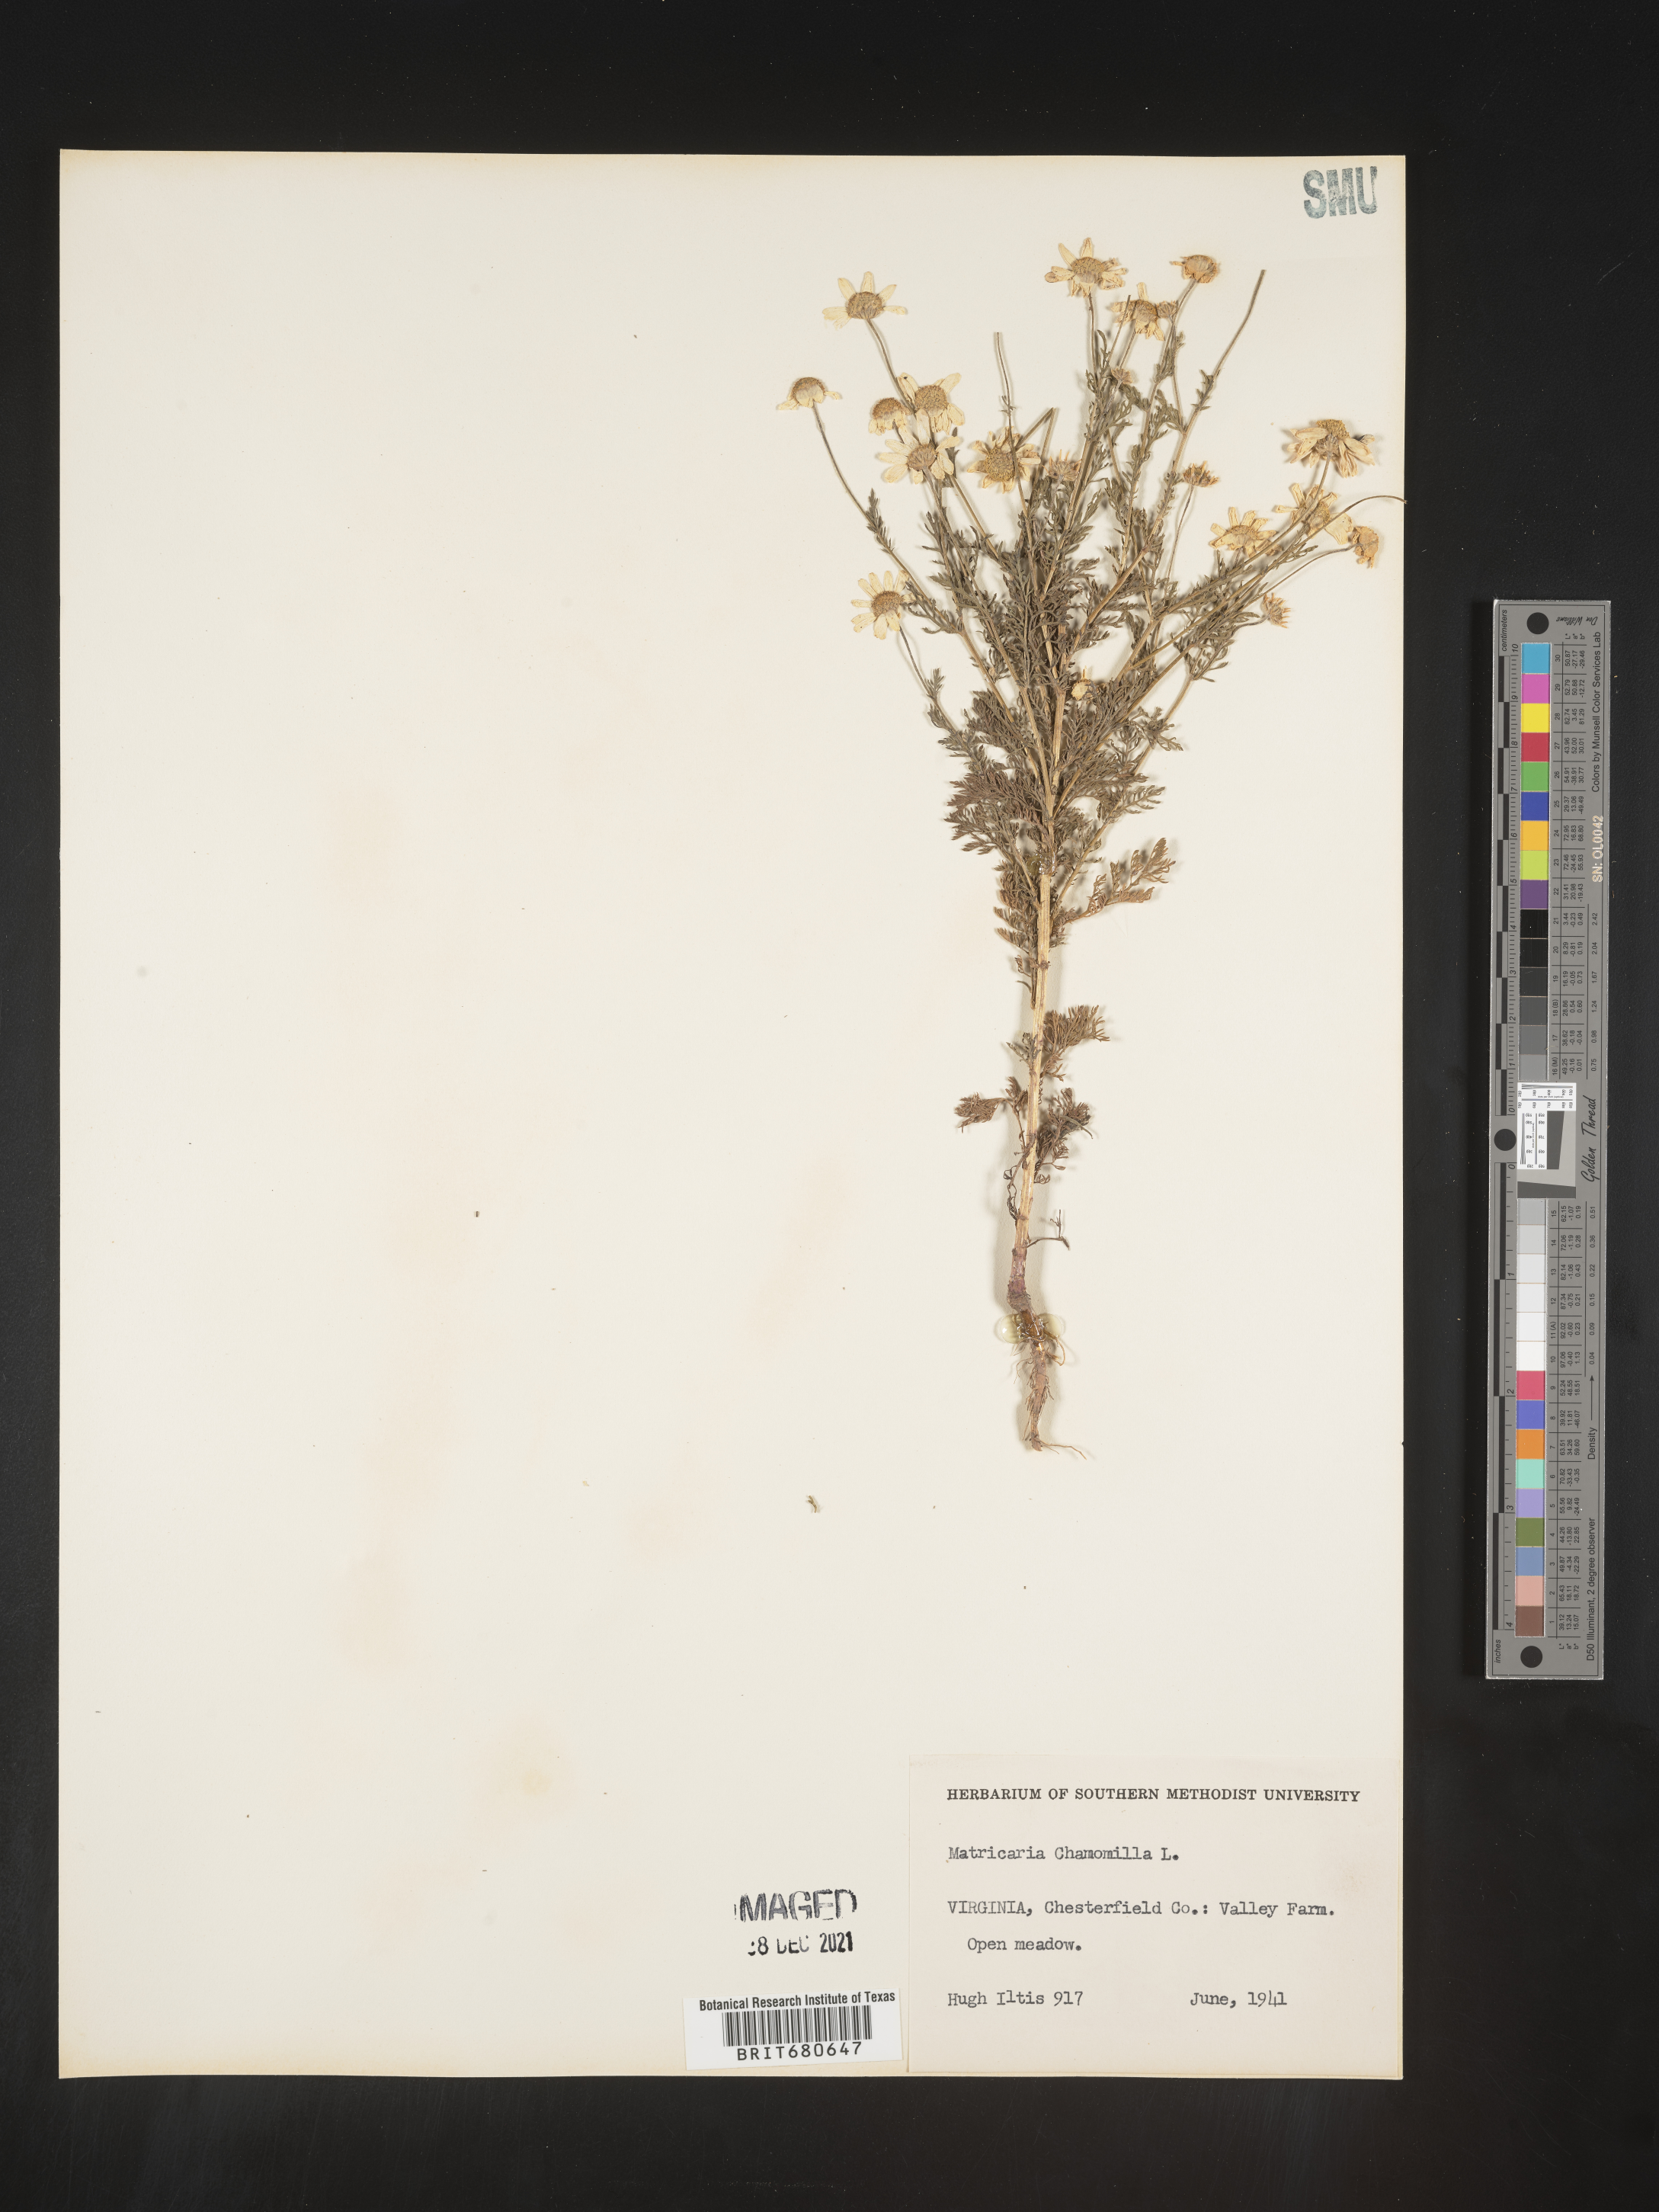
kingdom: Plantae
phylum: Tracheophyta
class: Magnoliopsida
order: Asterales
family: Asteraceae
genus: Anthemis
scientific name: Anthemis
